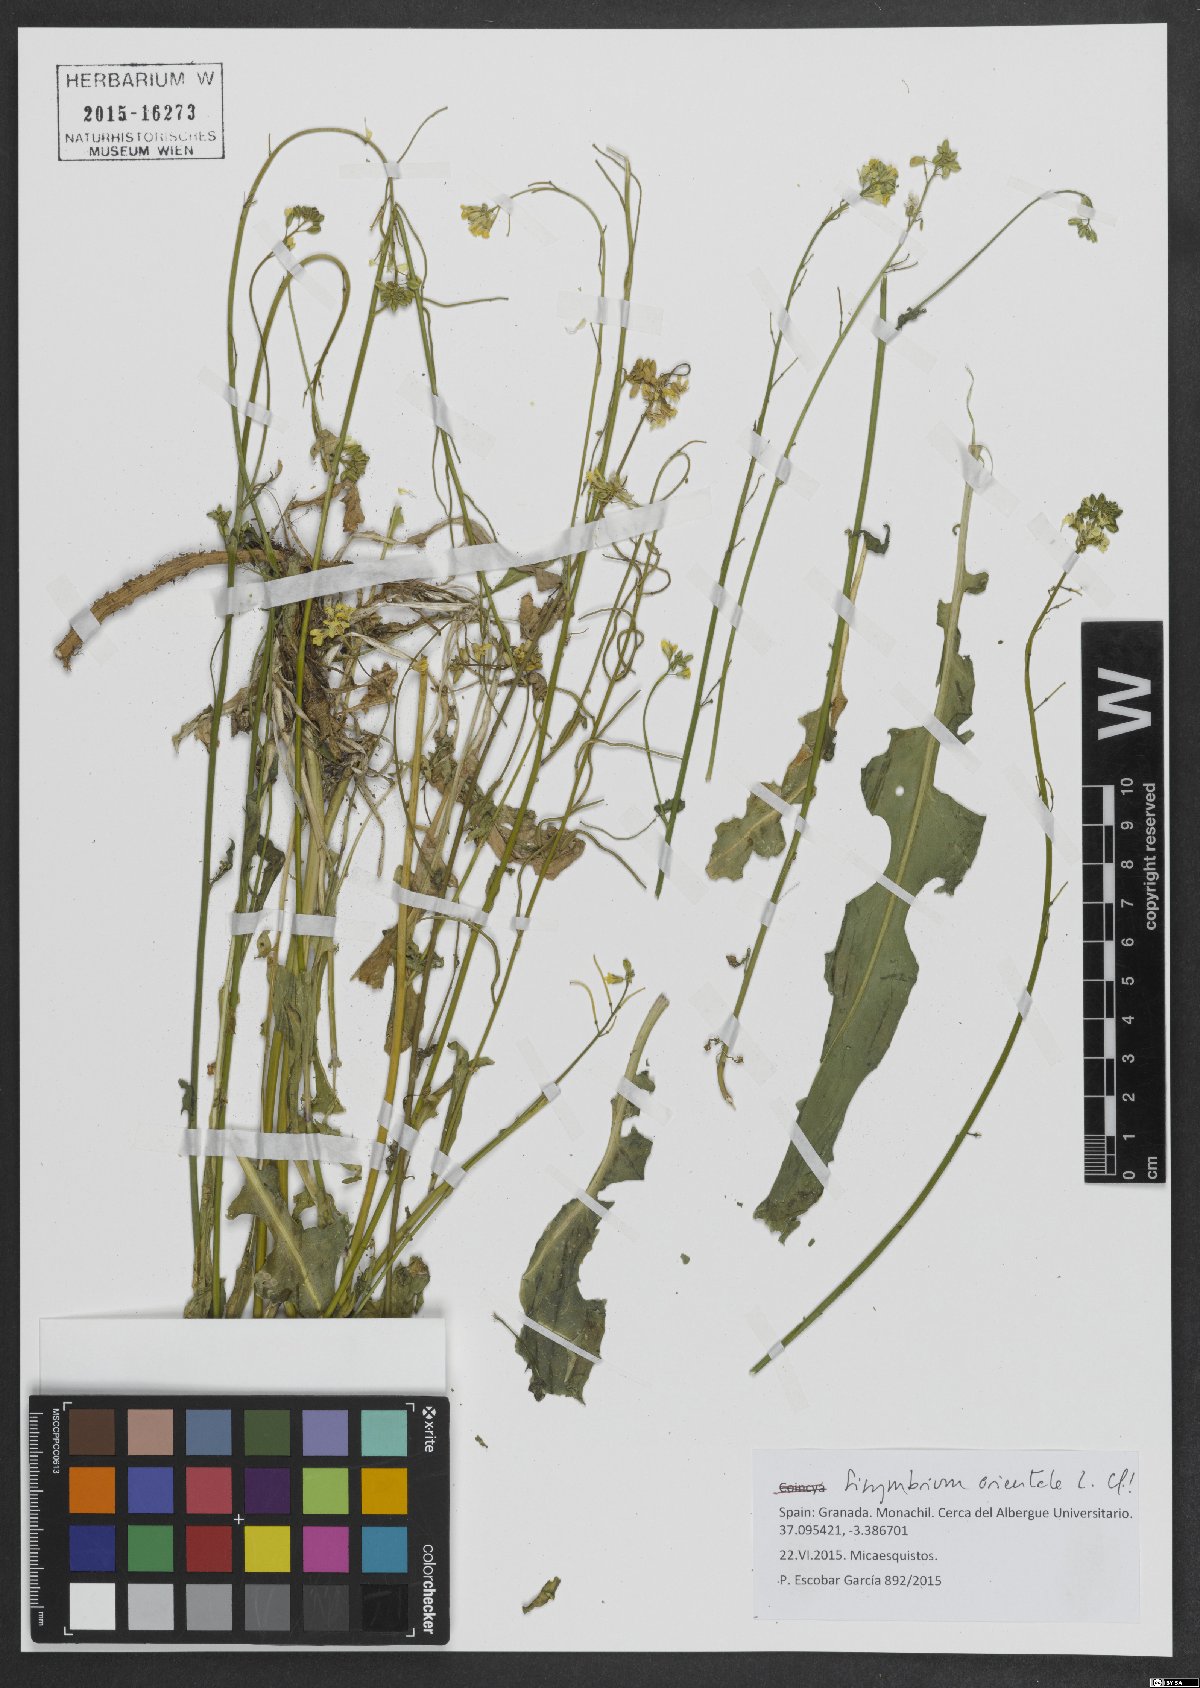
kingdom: Plantae
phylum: Tracheophyta
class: Magnoliopsida
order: Brassicales
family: Brassicaceae
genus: Sisymbrium
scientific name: Sisymbrium orientale
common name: Eastern rocket
